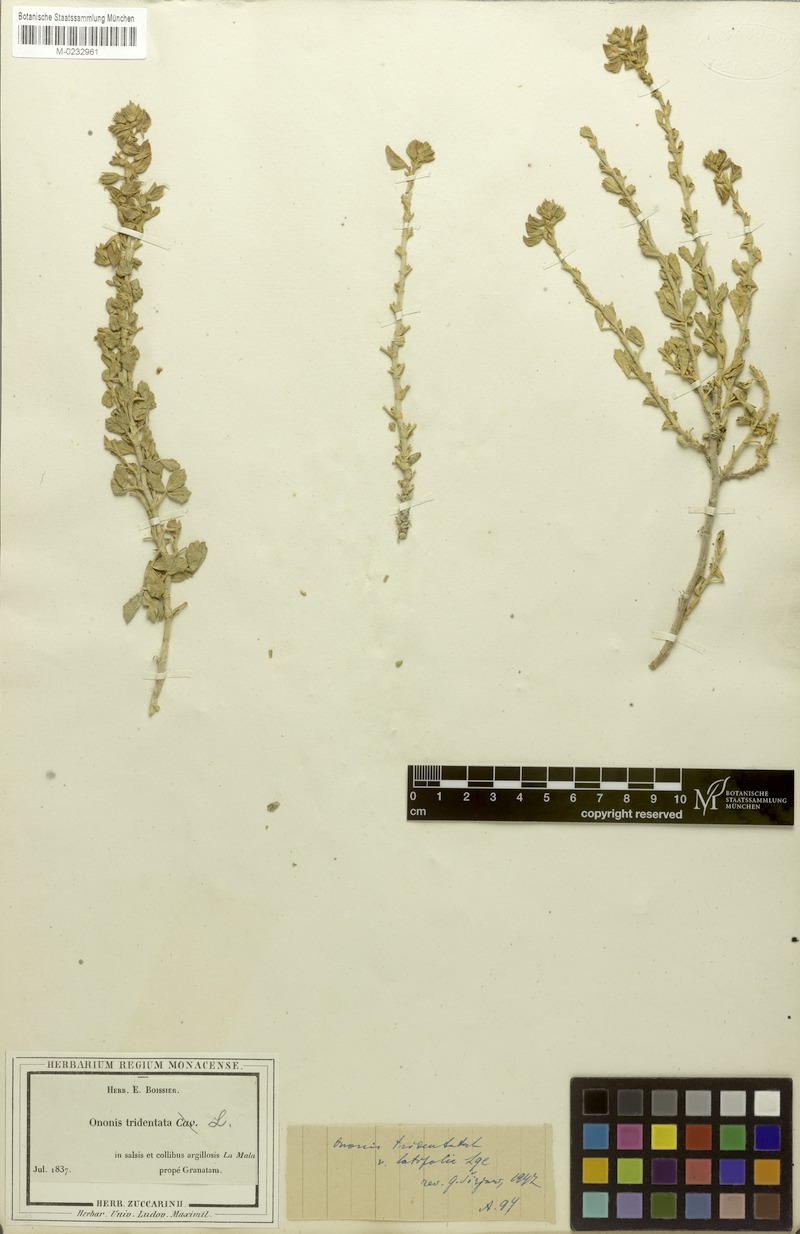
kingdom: Plantae
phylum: Tracheophyta
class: Magnoliopsida
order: Fabales
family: Fabaceae
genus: Ononis
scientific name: Ononis tridentata
